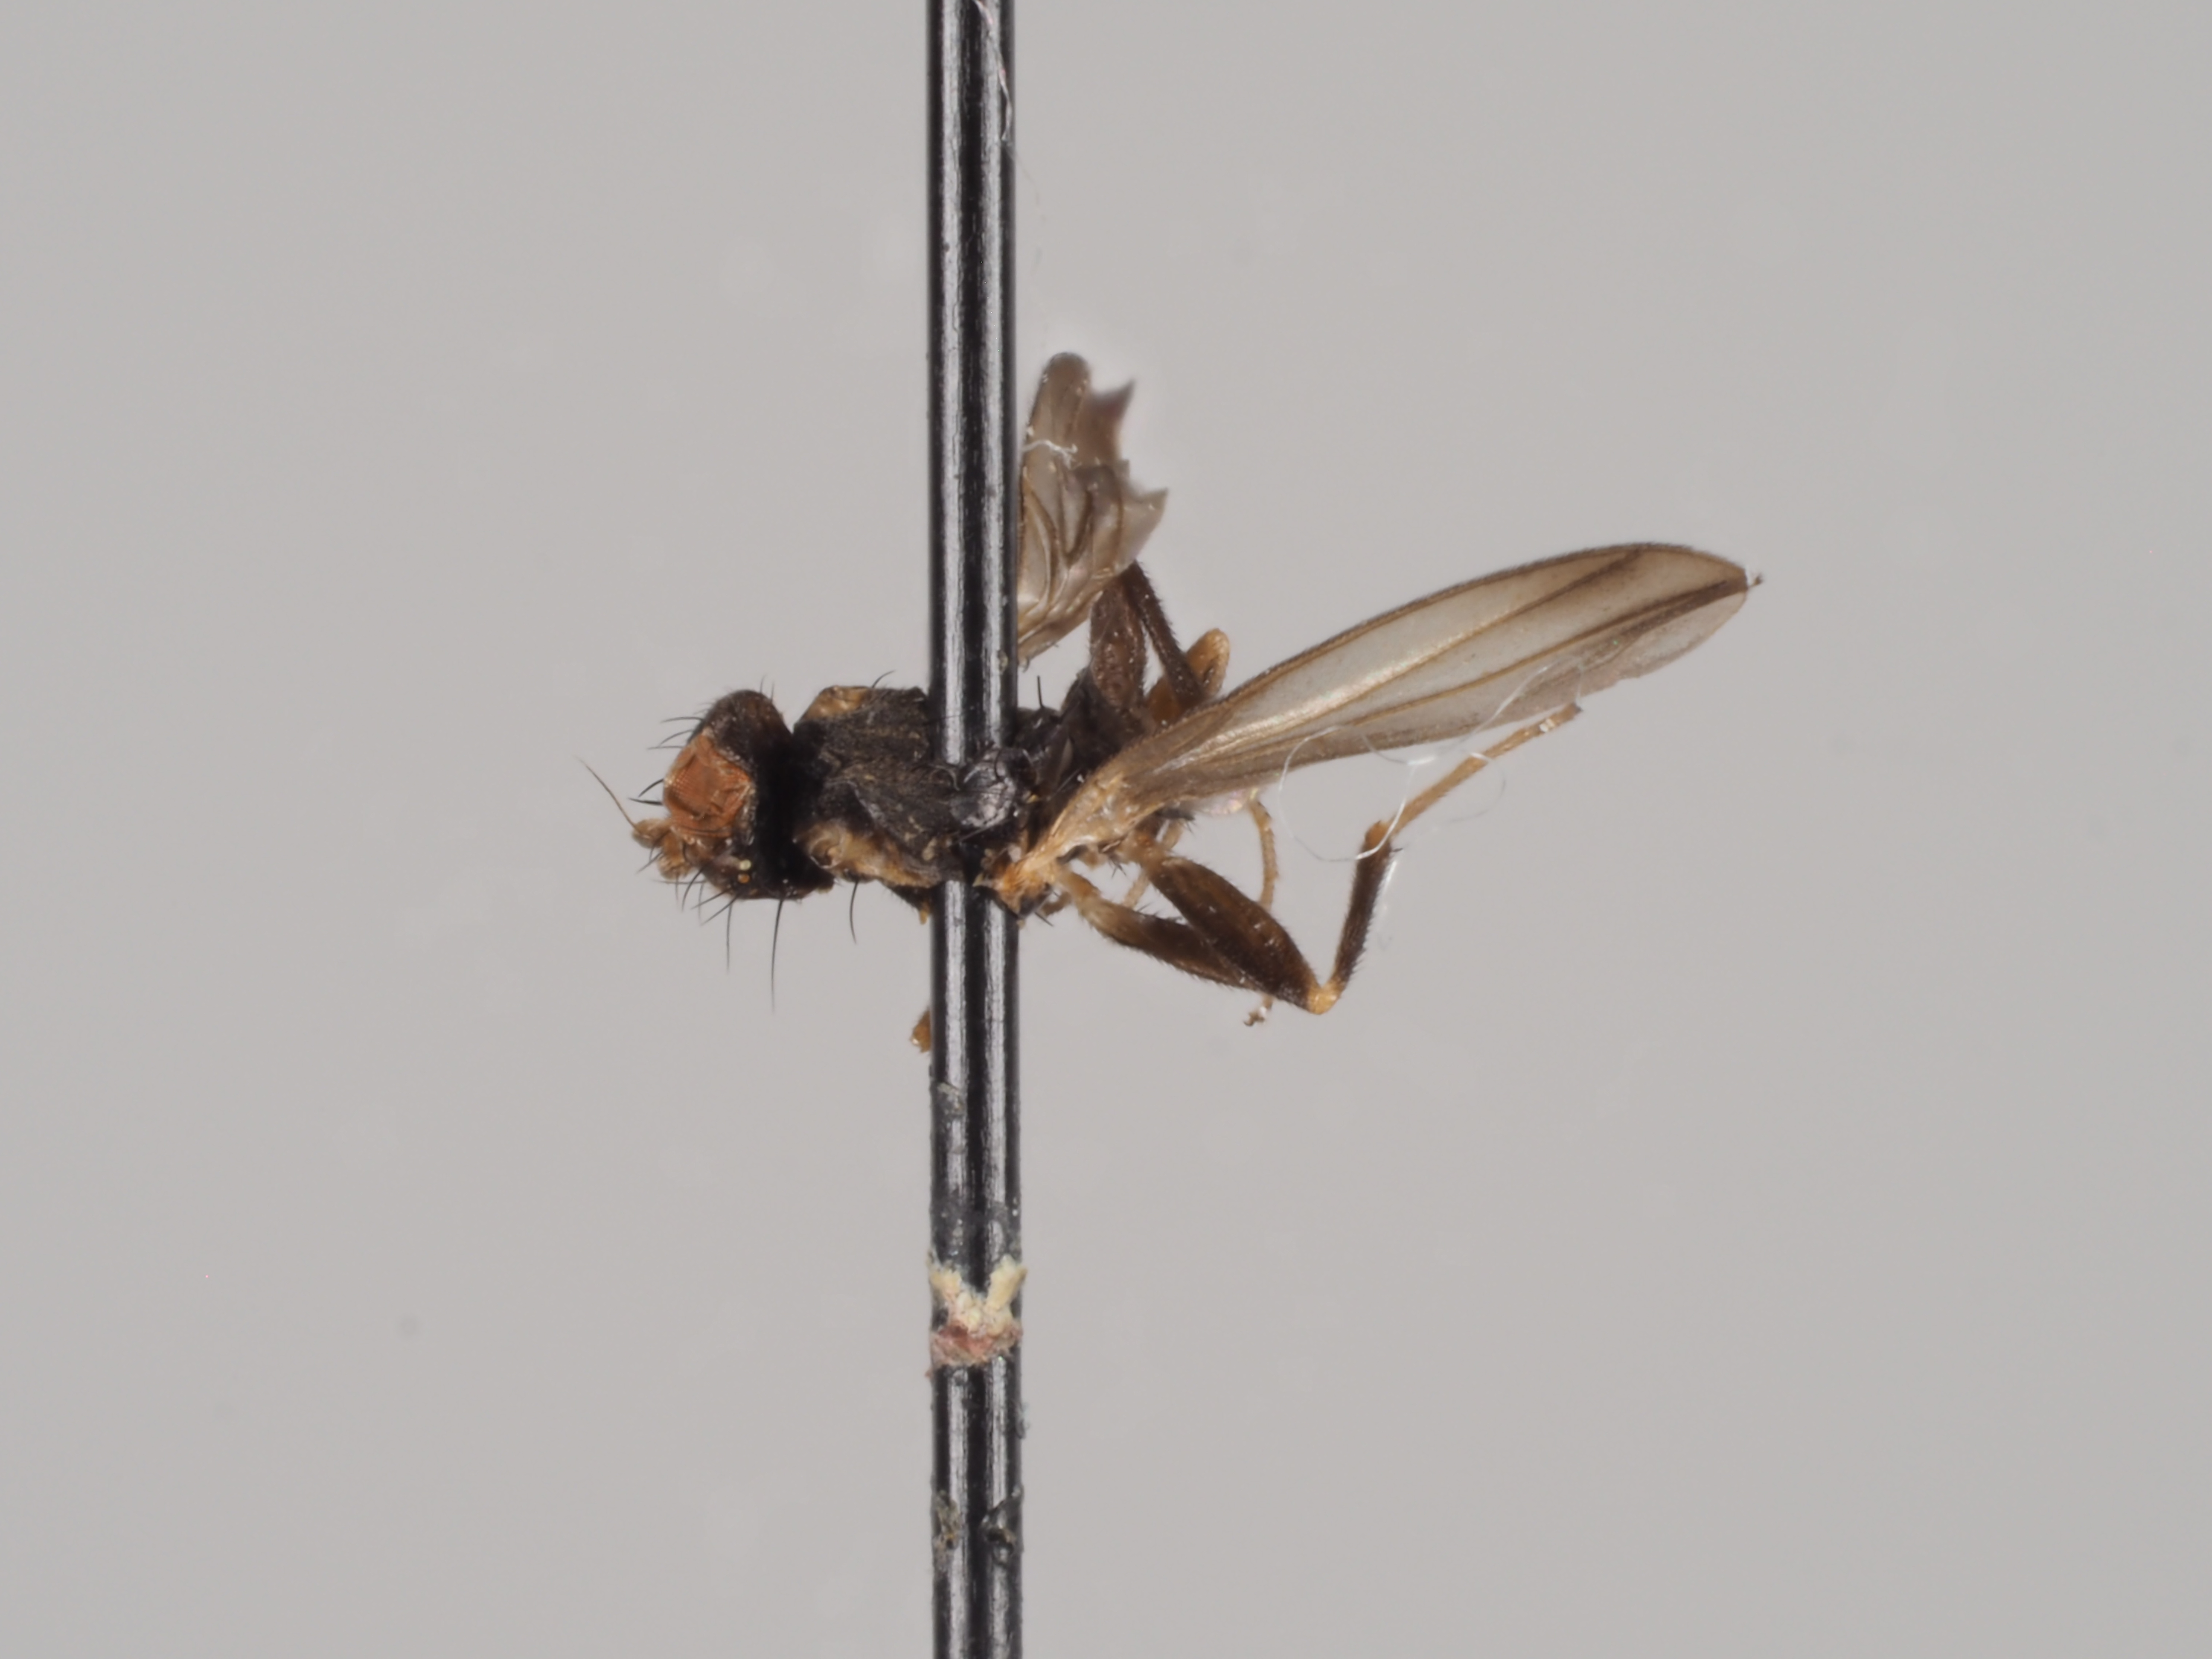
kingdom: Animalia
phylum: Arthropoda
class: Insecta
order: Diptera
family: Clusiidae
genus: Clusiodes
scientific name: Clusiodes pictipes
